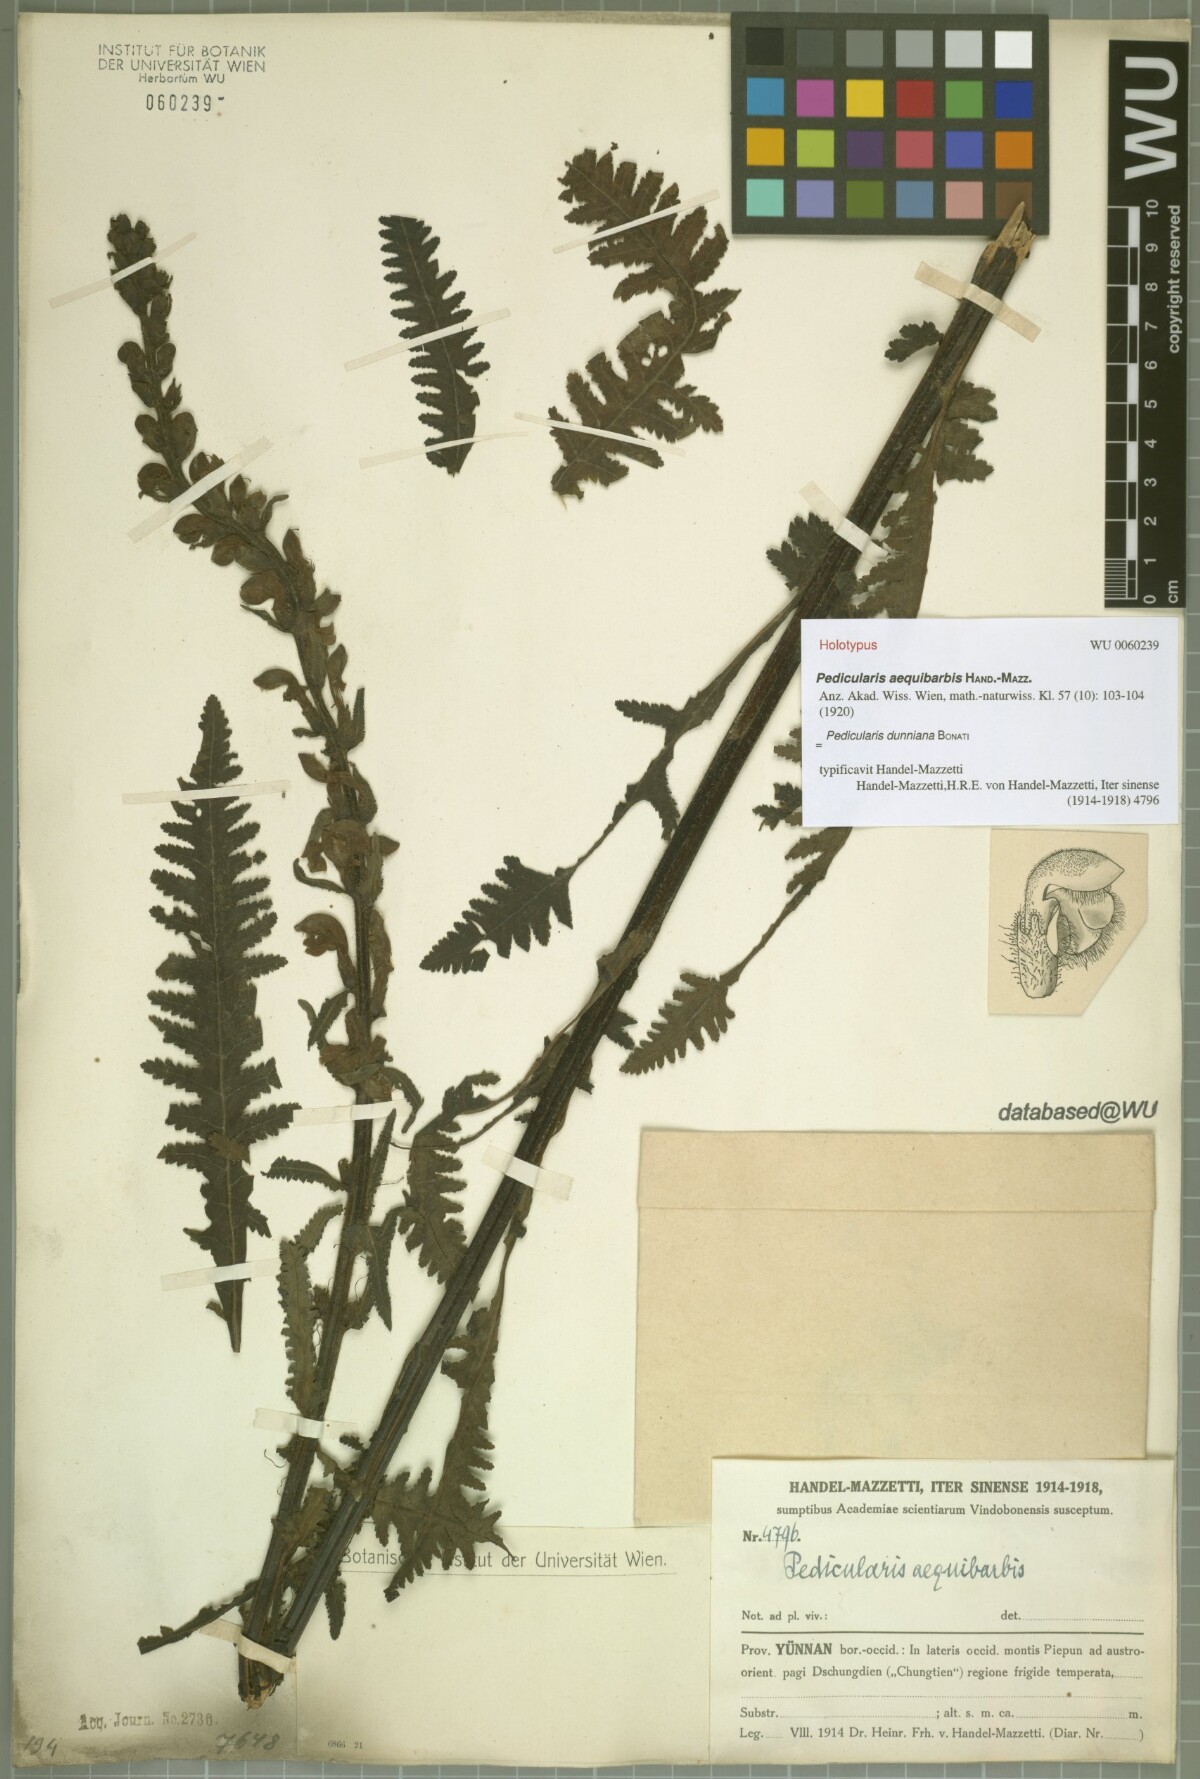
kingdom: Plantae
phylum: Tracheophyta
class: Magnoliopsida
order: Lamiales
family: Orobanchaceae
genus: Pedicularis
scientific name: Pedicularis dunniana
